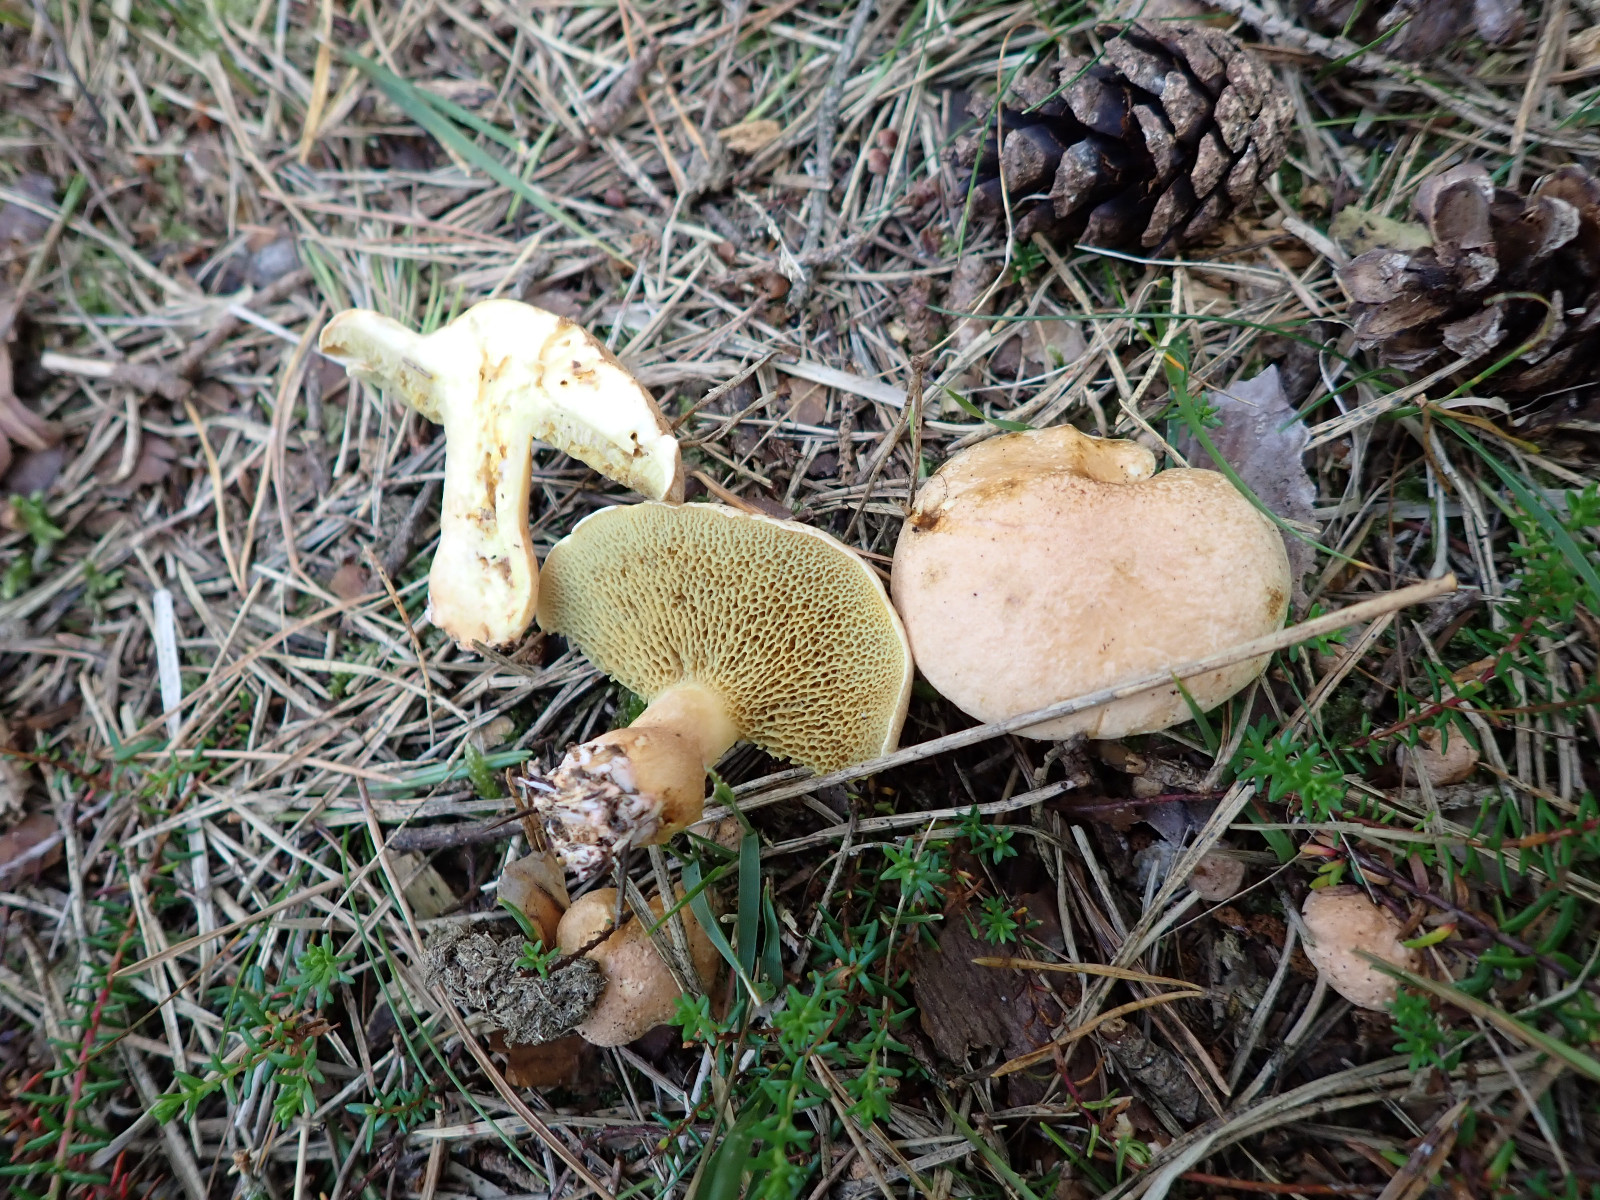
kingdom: Fungi
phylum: Basidiomycota
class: Agaricomycetes
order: Boletales
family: Suillaceae
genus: Suillus
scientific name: Suillus bovinus
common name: grovporet slimrørhat
